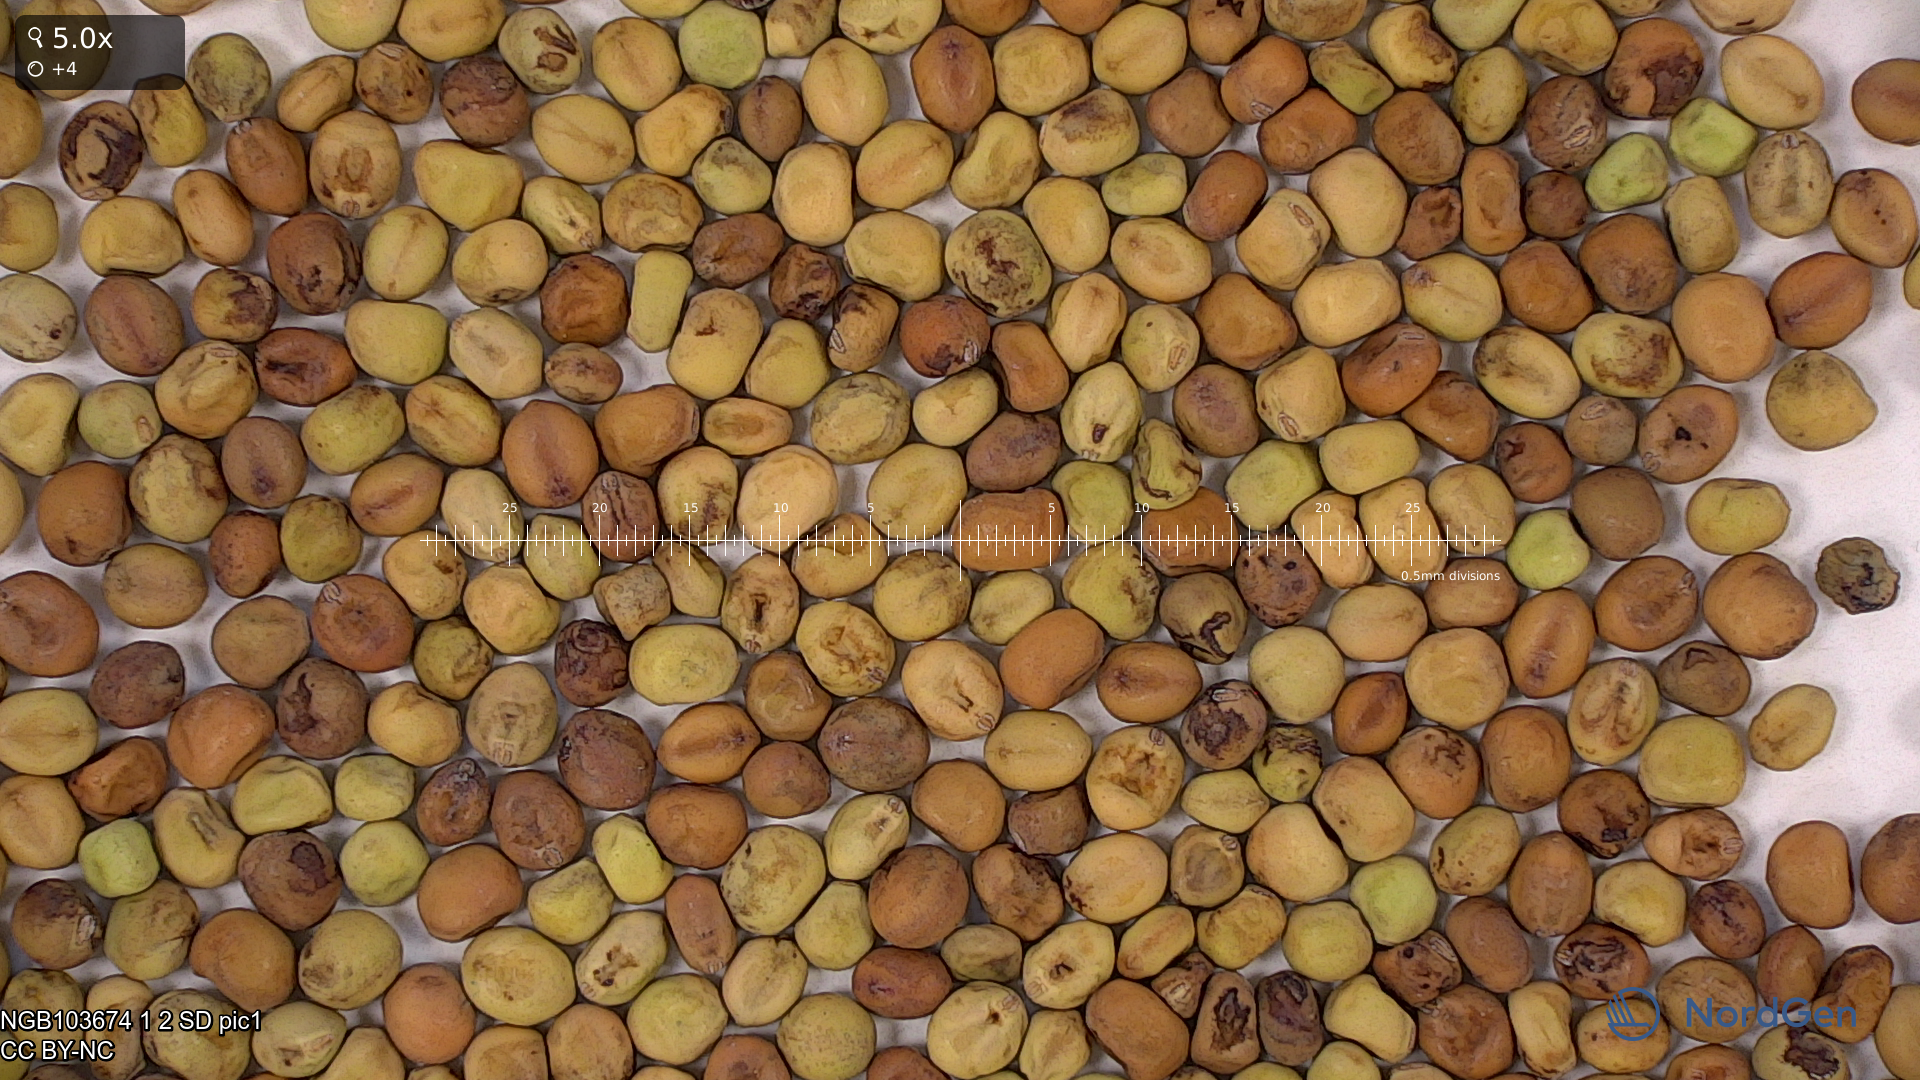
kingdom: Plantae
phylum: Tracheophyta
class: Magnoliopsida
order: Fabales
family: Fabaceae
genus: Lathyrus
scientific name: Lathyrus oleraceus
